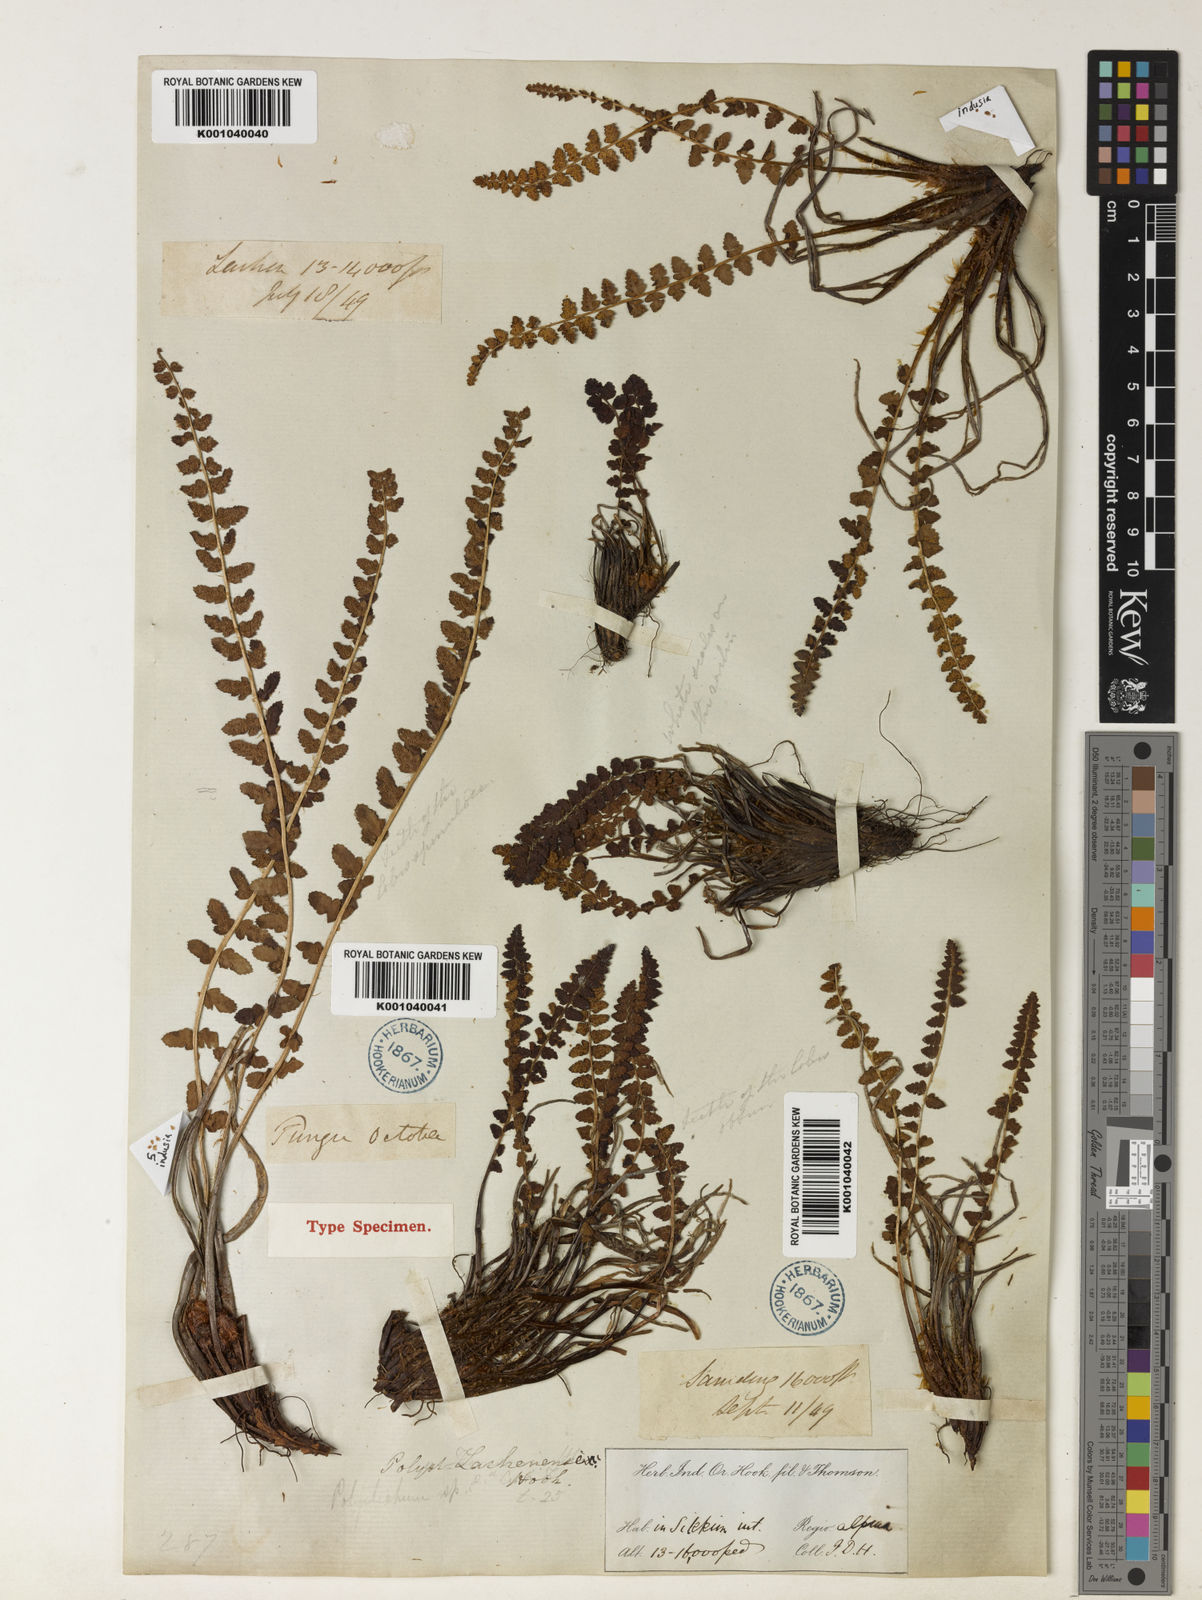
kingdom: Plantae
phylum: Tracheophyta
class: Polypodiopsida
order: Polypodiales
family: Dryopteridaceae
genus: Polystichum
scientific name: Polystichum lachenense
